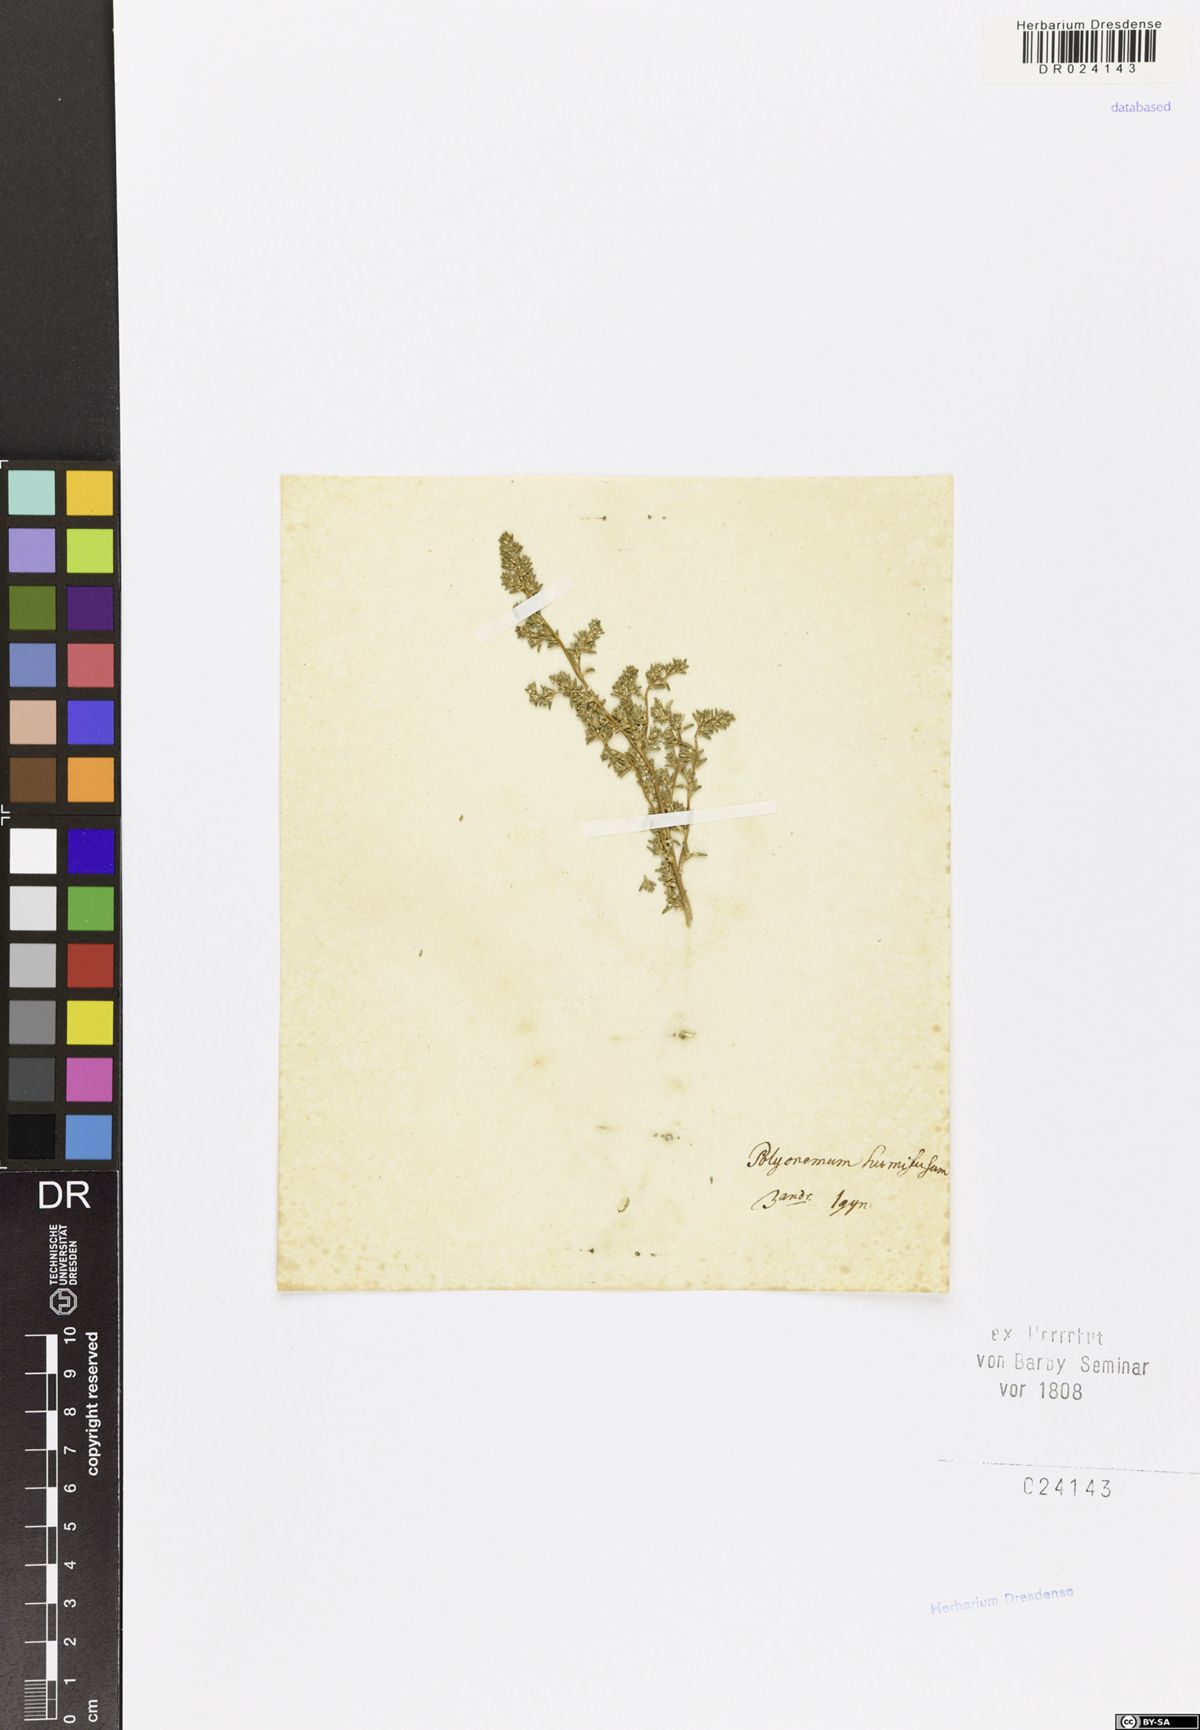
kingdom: Plantae
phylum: Tracheophyta
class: Magnoliopsida
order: Caryophyllales
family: Polygonaceae
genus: Polygonum
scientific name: Polygonum humifusum
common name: Alaska knotweed
